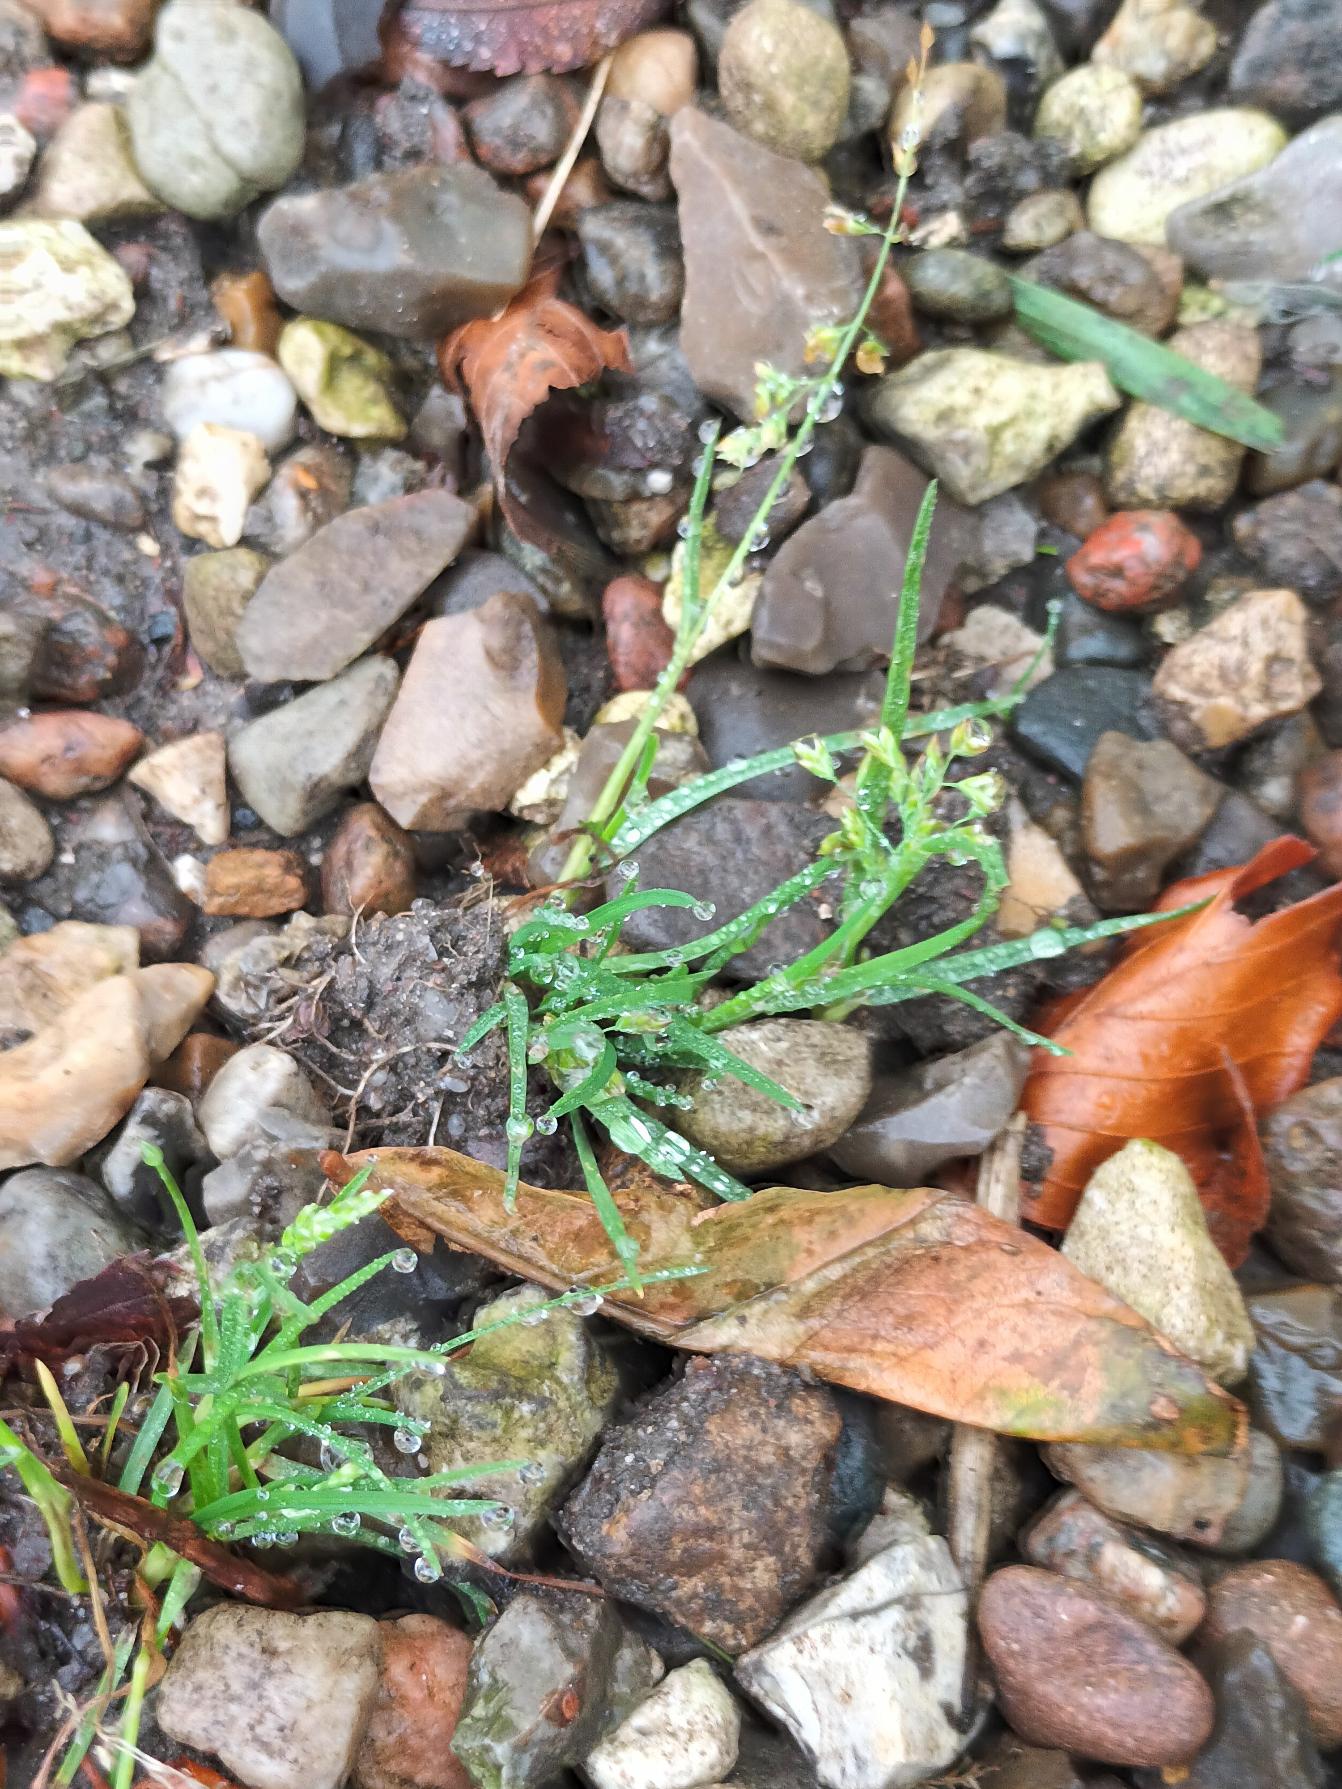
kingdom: Plantae
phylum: Tracheophyta
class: Liliopsida
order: Poales
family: Poaceae
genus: Poa
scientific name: Poa annua
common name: Enårig rapgræs
